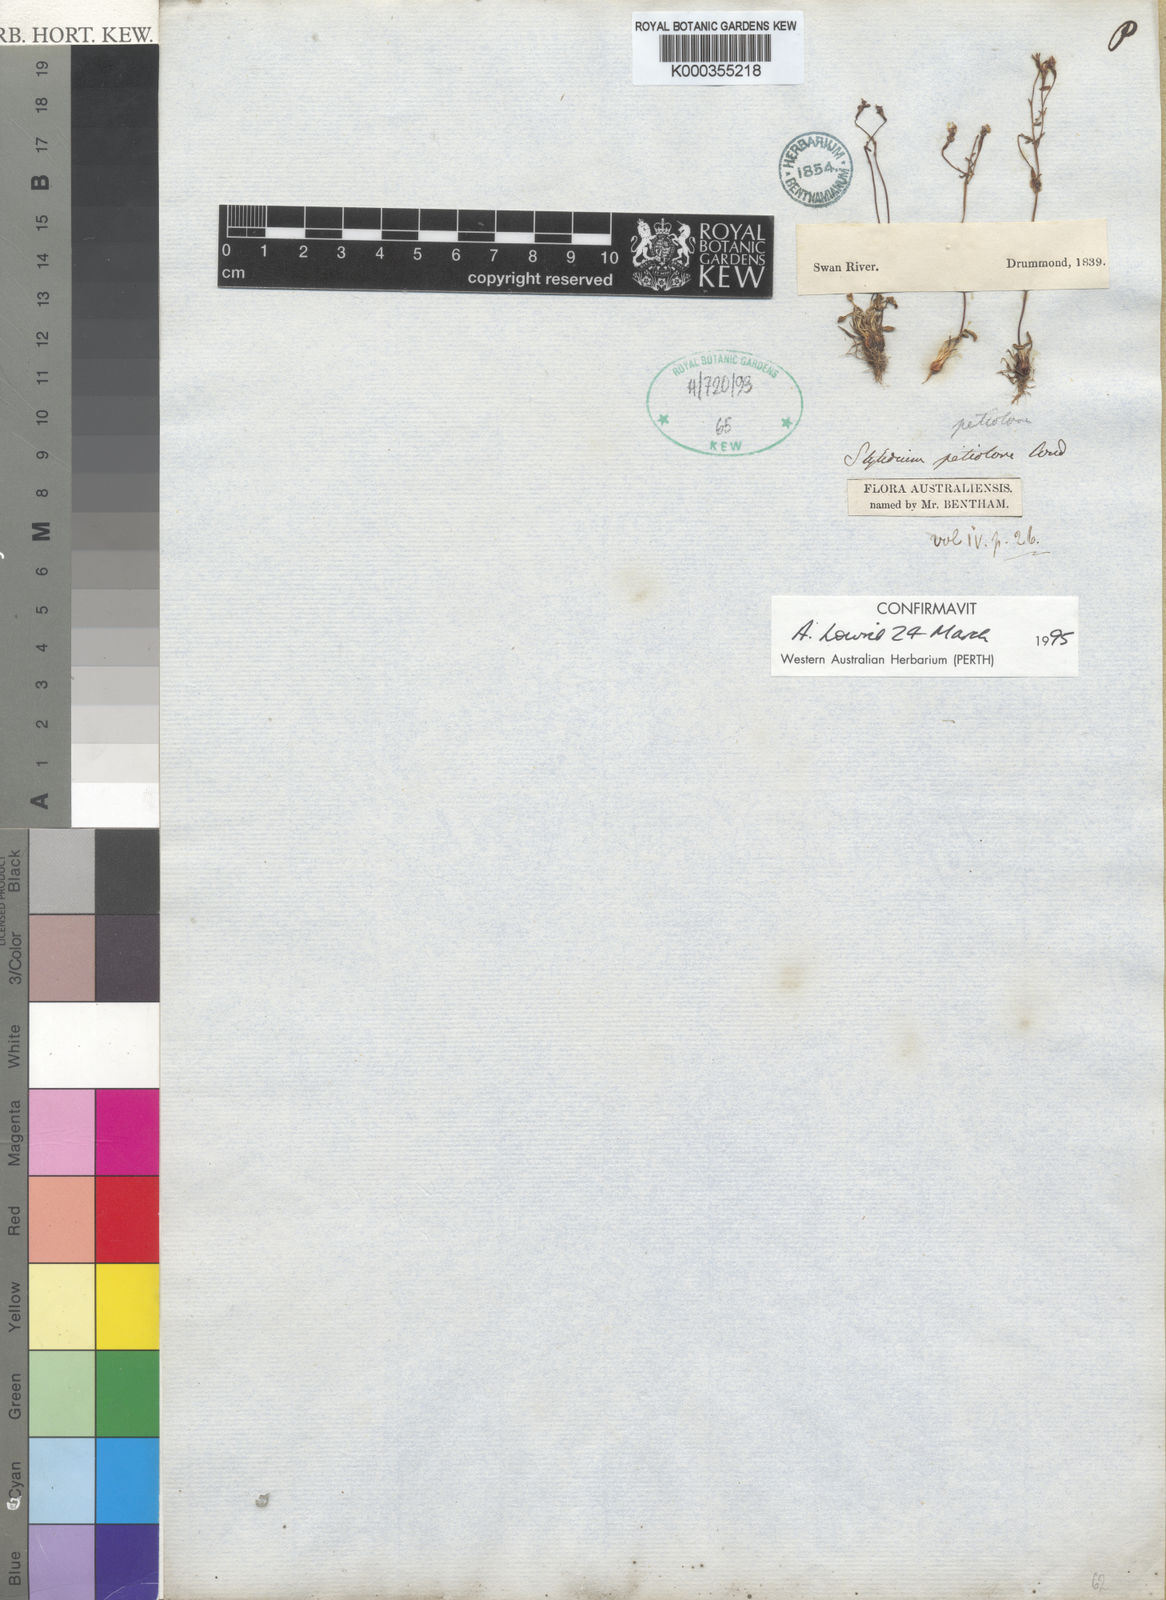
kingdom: Plantae
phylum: Tracheophyta
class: Magnoliopsida
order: Asterales
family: Stylidiaceae
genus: Stylidium
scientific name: Stylidium petiolare
